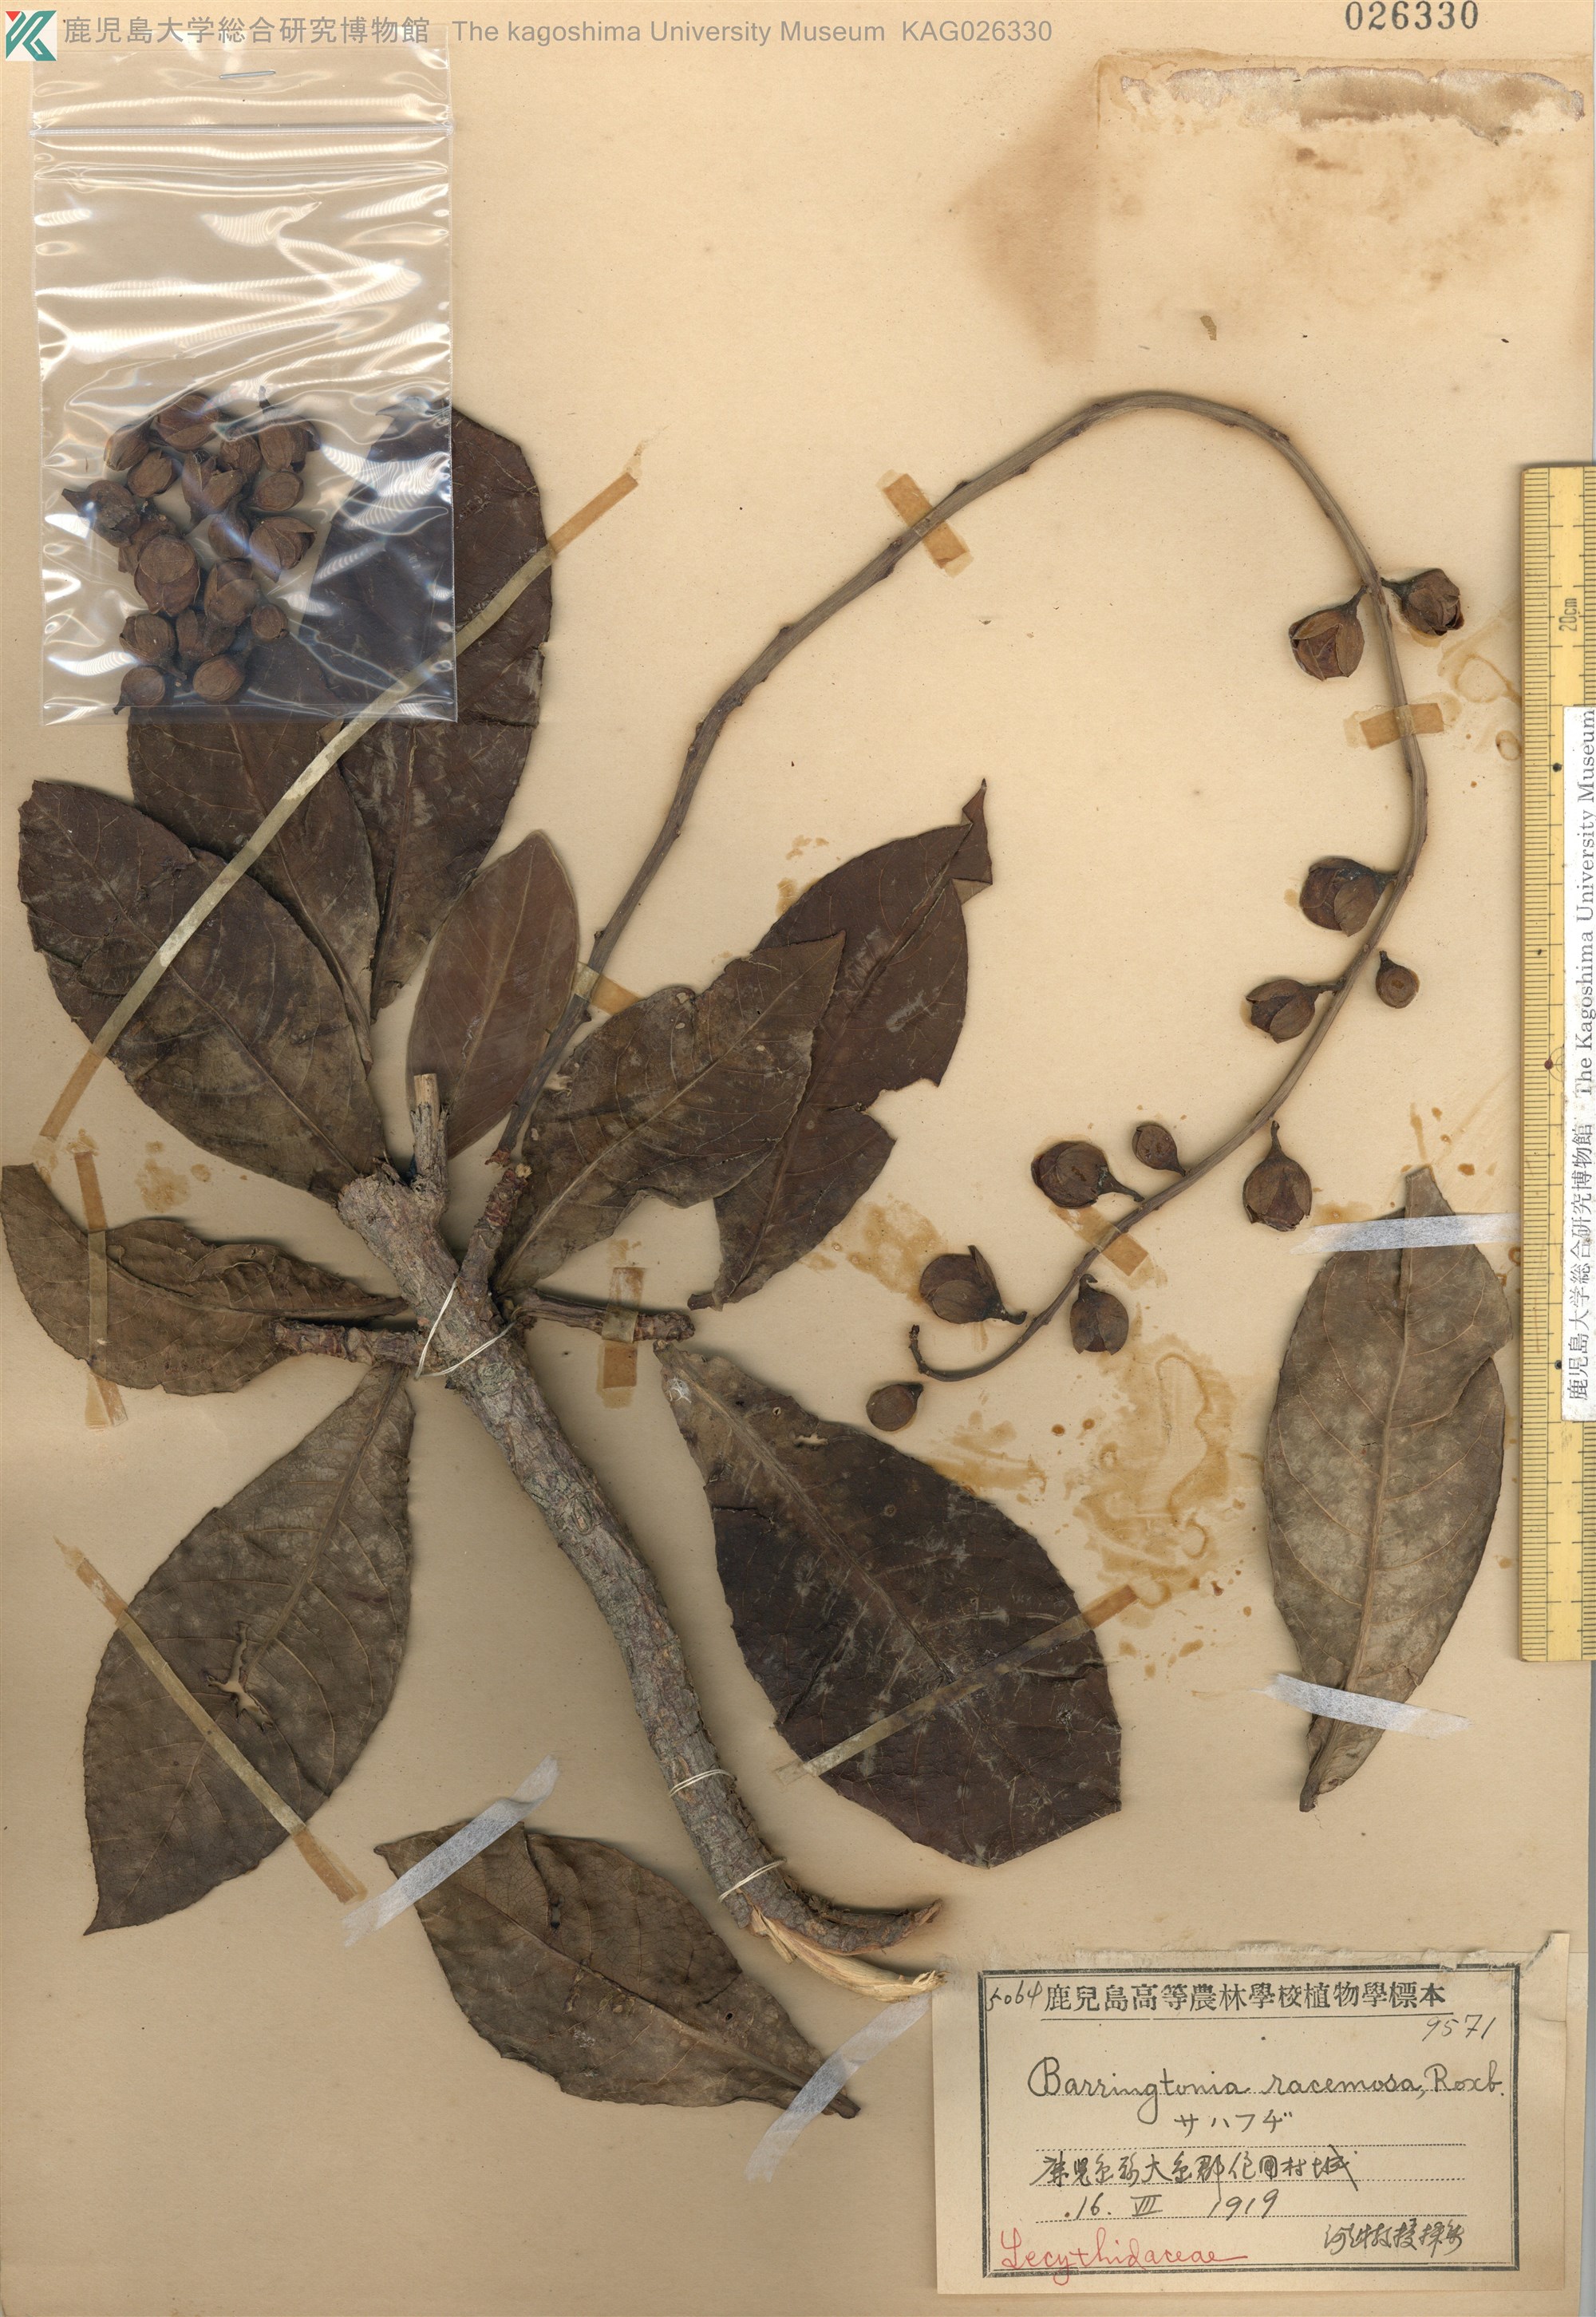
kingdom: Plantae
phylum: Tracheophyta
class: Magnoliopsida
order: Ericales
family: Lecythidaceae
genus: Barringtonia
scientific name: Barringtonia racemosa
